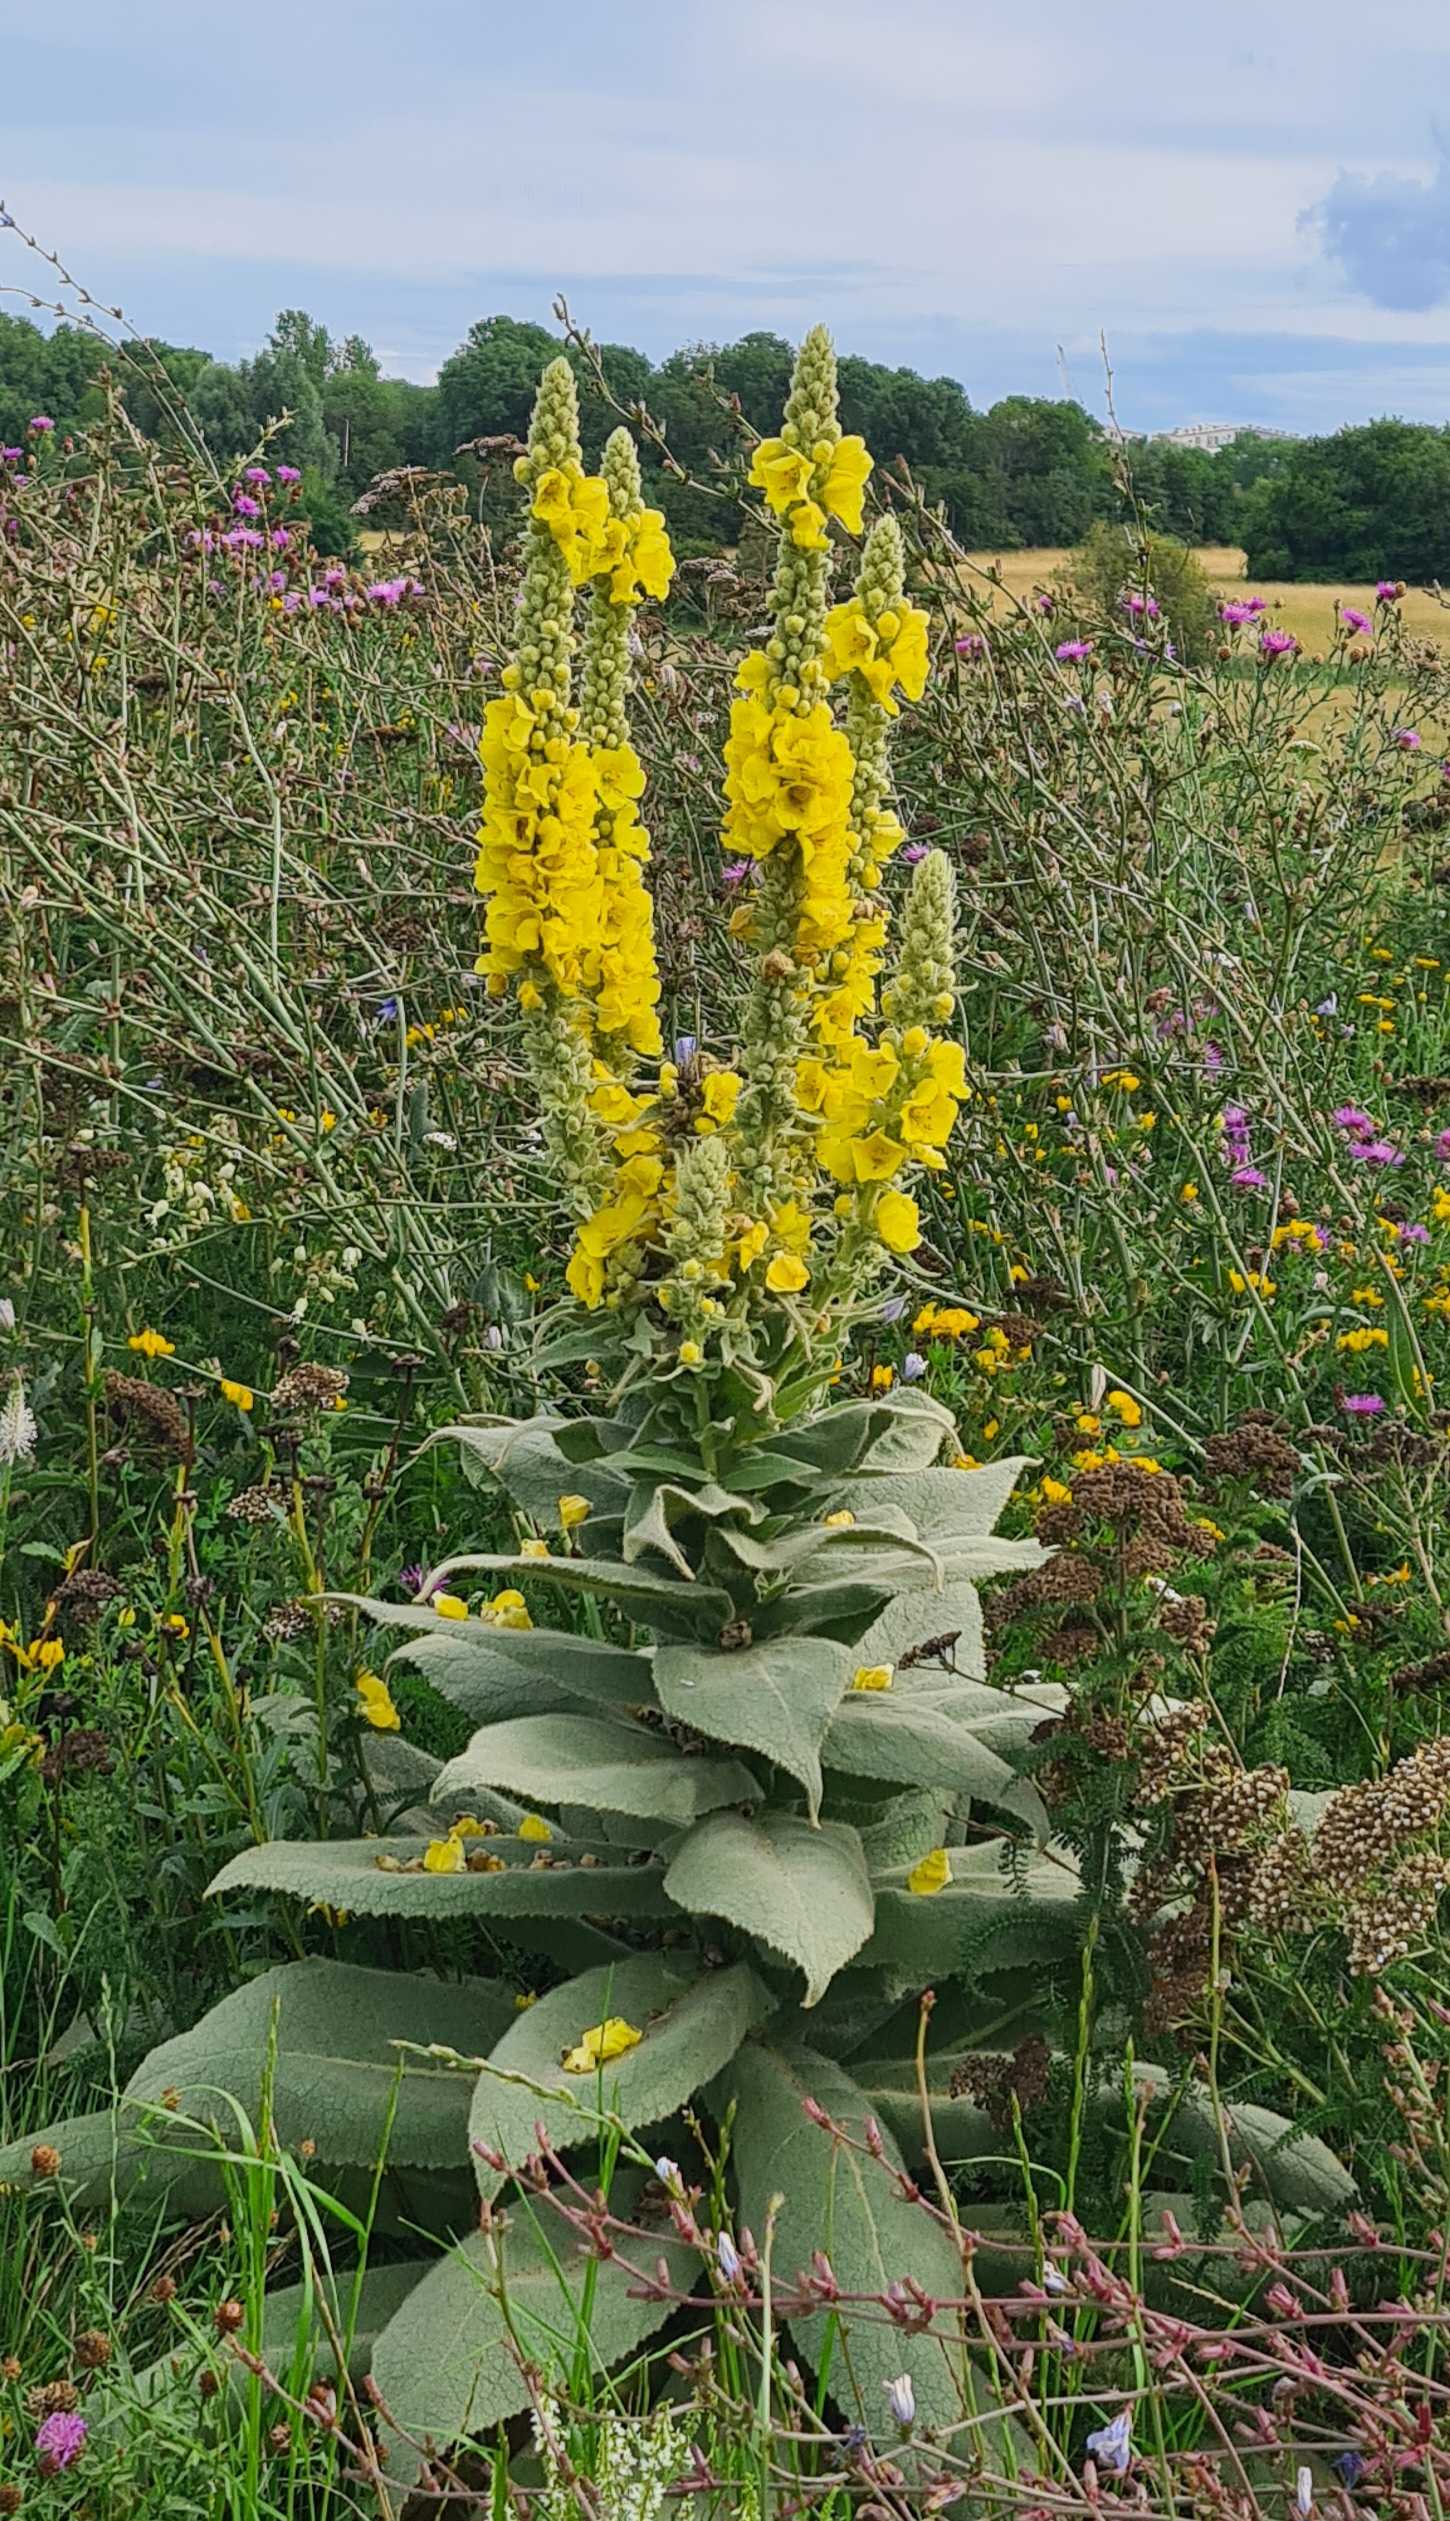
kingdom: Plantae
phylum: Tracheophyta
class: Magnoliopsida
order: Lamiales
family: Scrophulariaceae
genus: Verbascum
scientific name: Verbascum densiflorum
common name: Uldbladet kongelys
